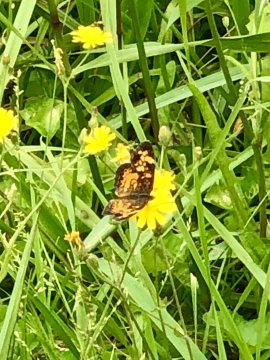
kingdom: Animalia
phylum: Arthropoda
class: Insecta
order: Lepidoptera
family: Nymphalidae
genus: Phyciodes
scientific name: Phyciodes tharos
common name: Pearl Crescent
